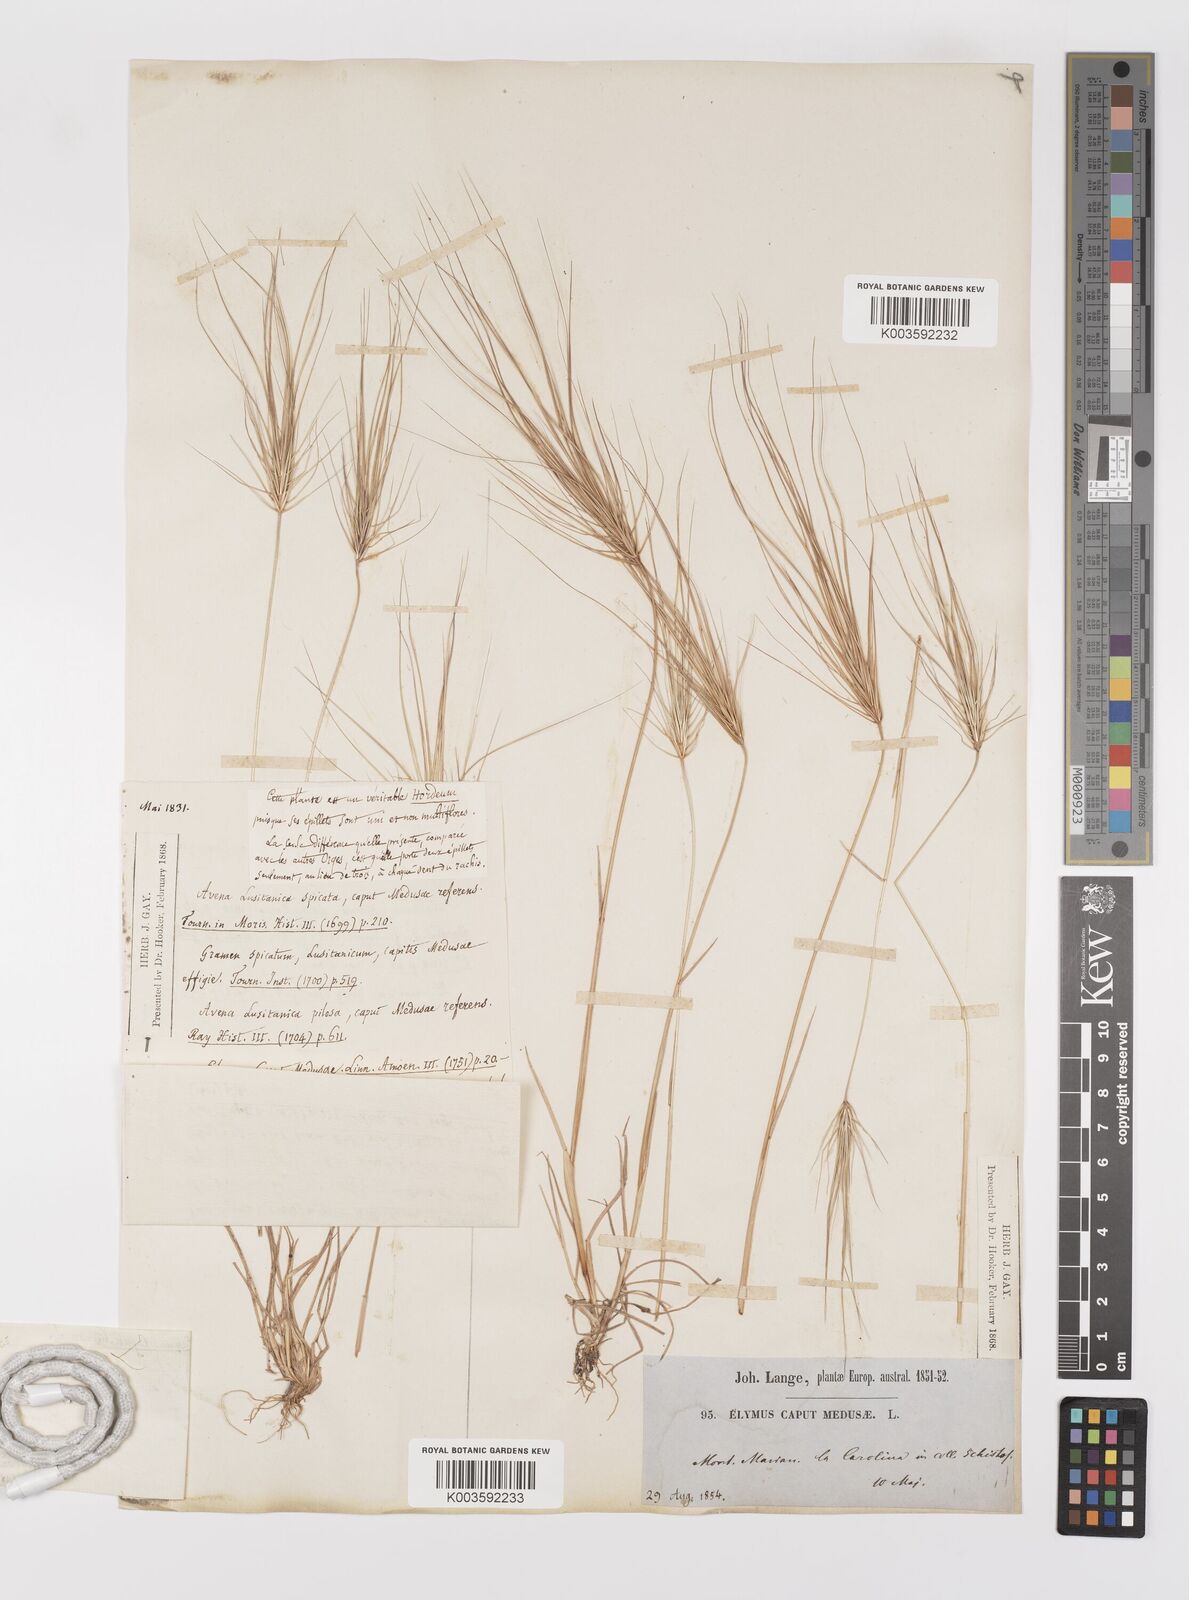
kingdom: Plantae
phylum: Tracheophyta
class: Liliopsida
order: Poales
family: Poaceae
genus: Taeniatherum
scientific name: Taeniatherum caput-medusae
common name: Medusahead
